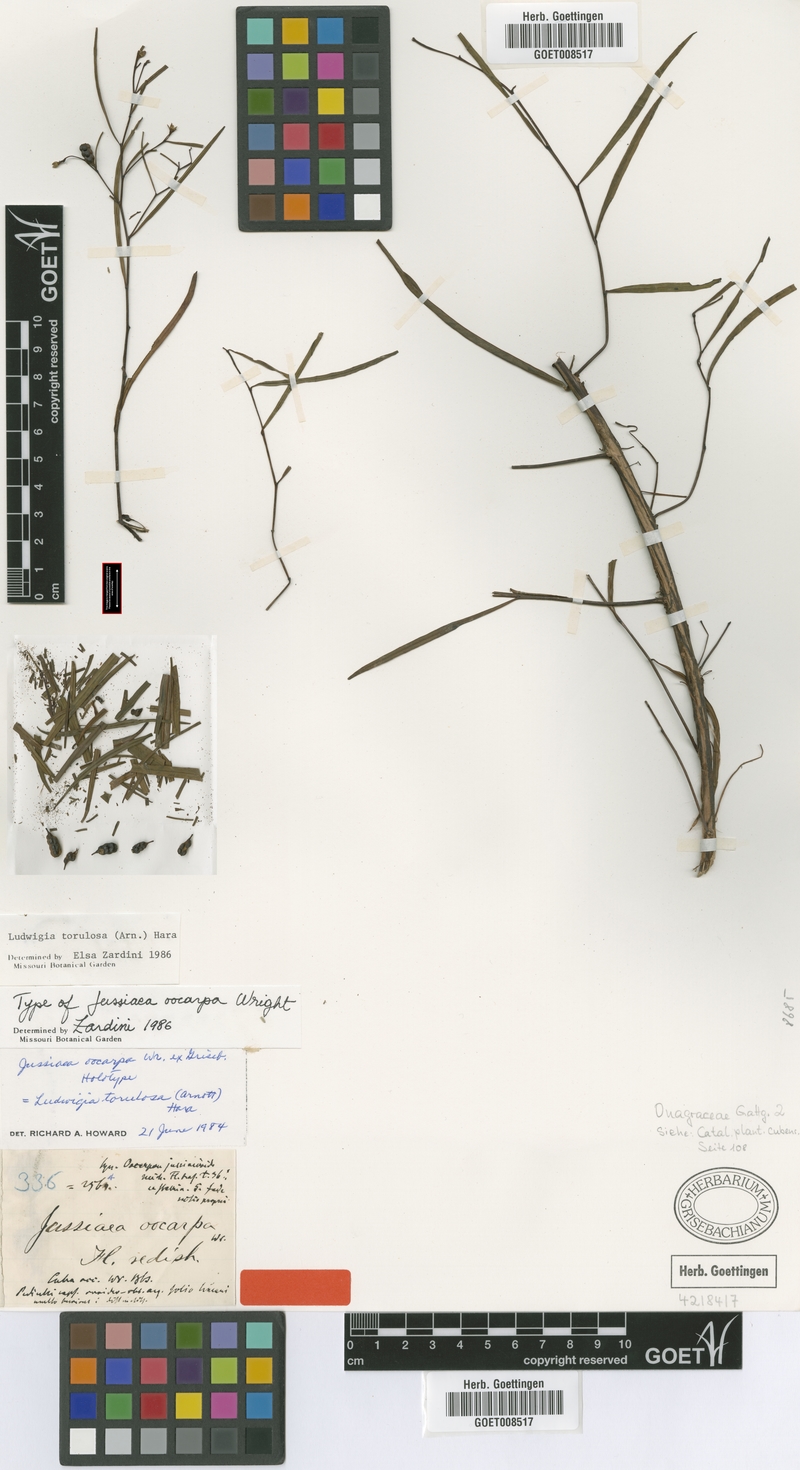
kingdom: Plantae
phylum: Tracheophyta
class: Magnoliopsida
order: Myrtales
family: Onagraceae
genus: Ludwigia
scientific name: Ludwigia torulosa
